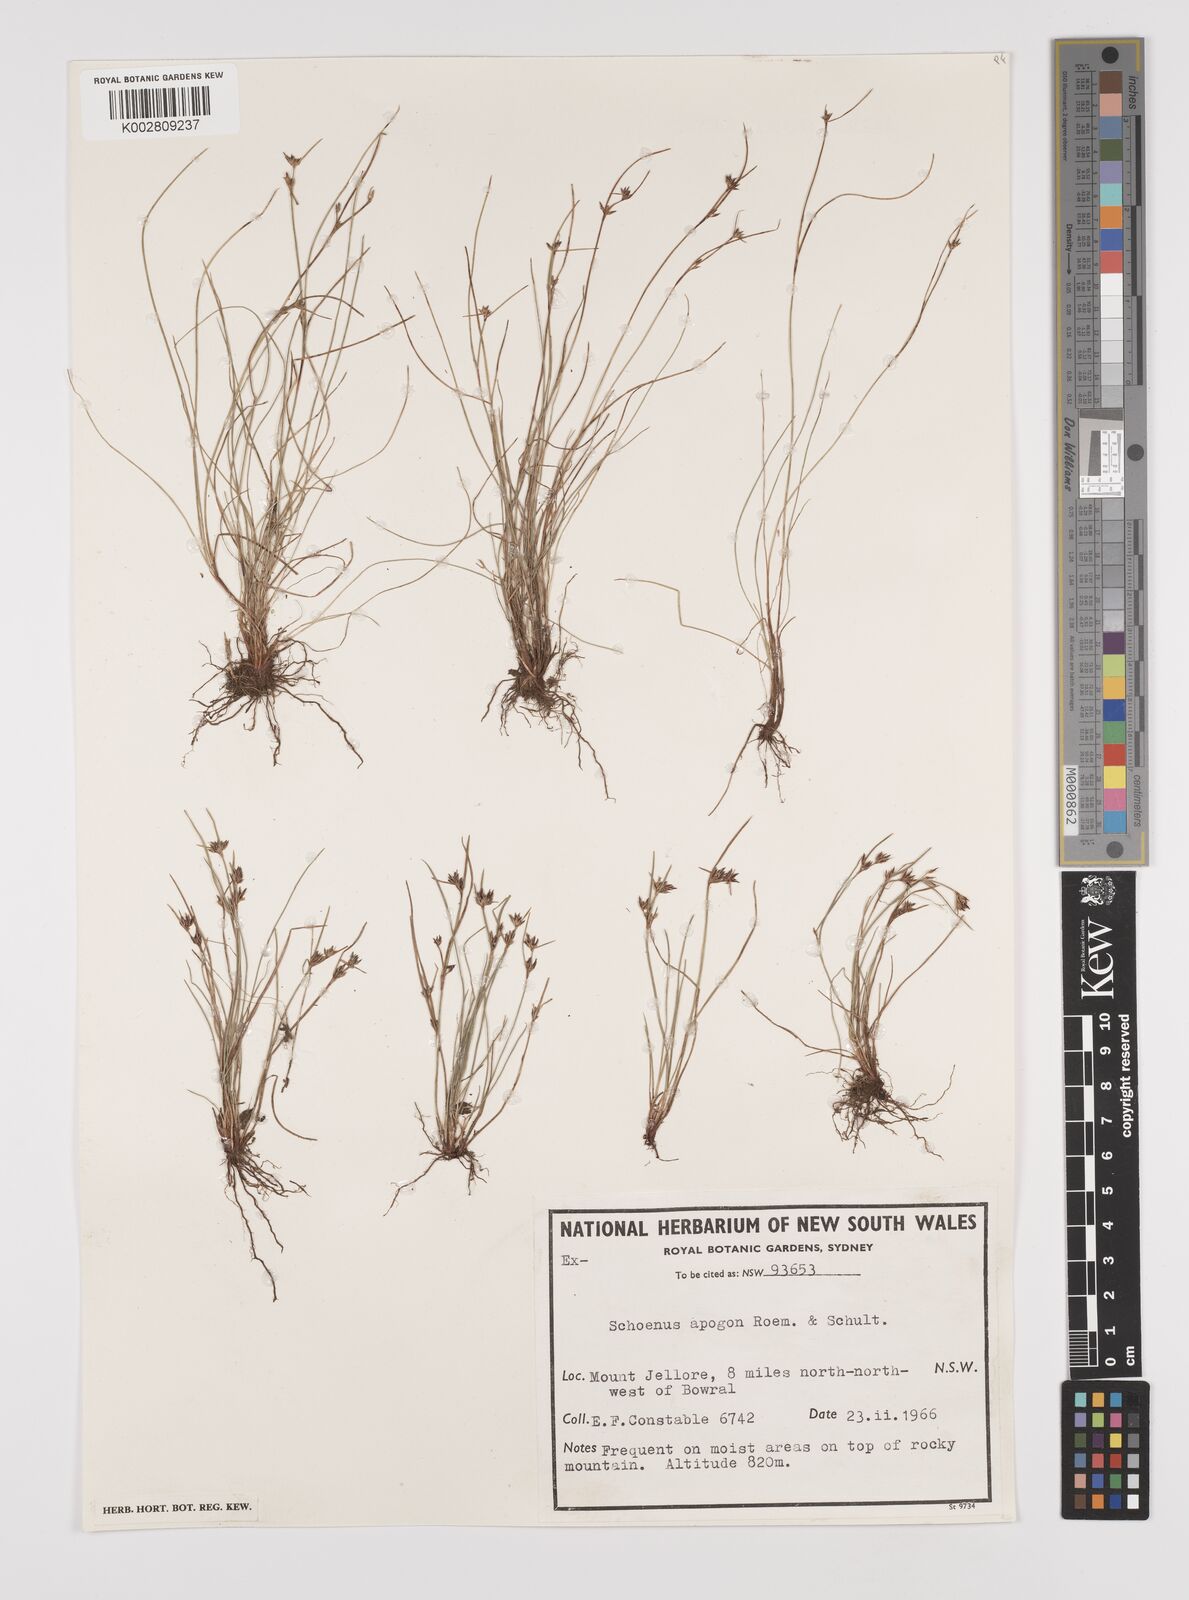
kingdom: Plantae
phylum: Tracheophyta
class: Liliopsida
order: Poales
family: Cyperaceae
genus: Schoenus
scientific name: Schoenus apogon
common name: Smooth bogrush
